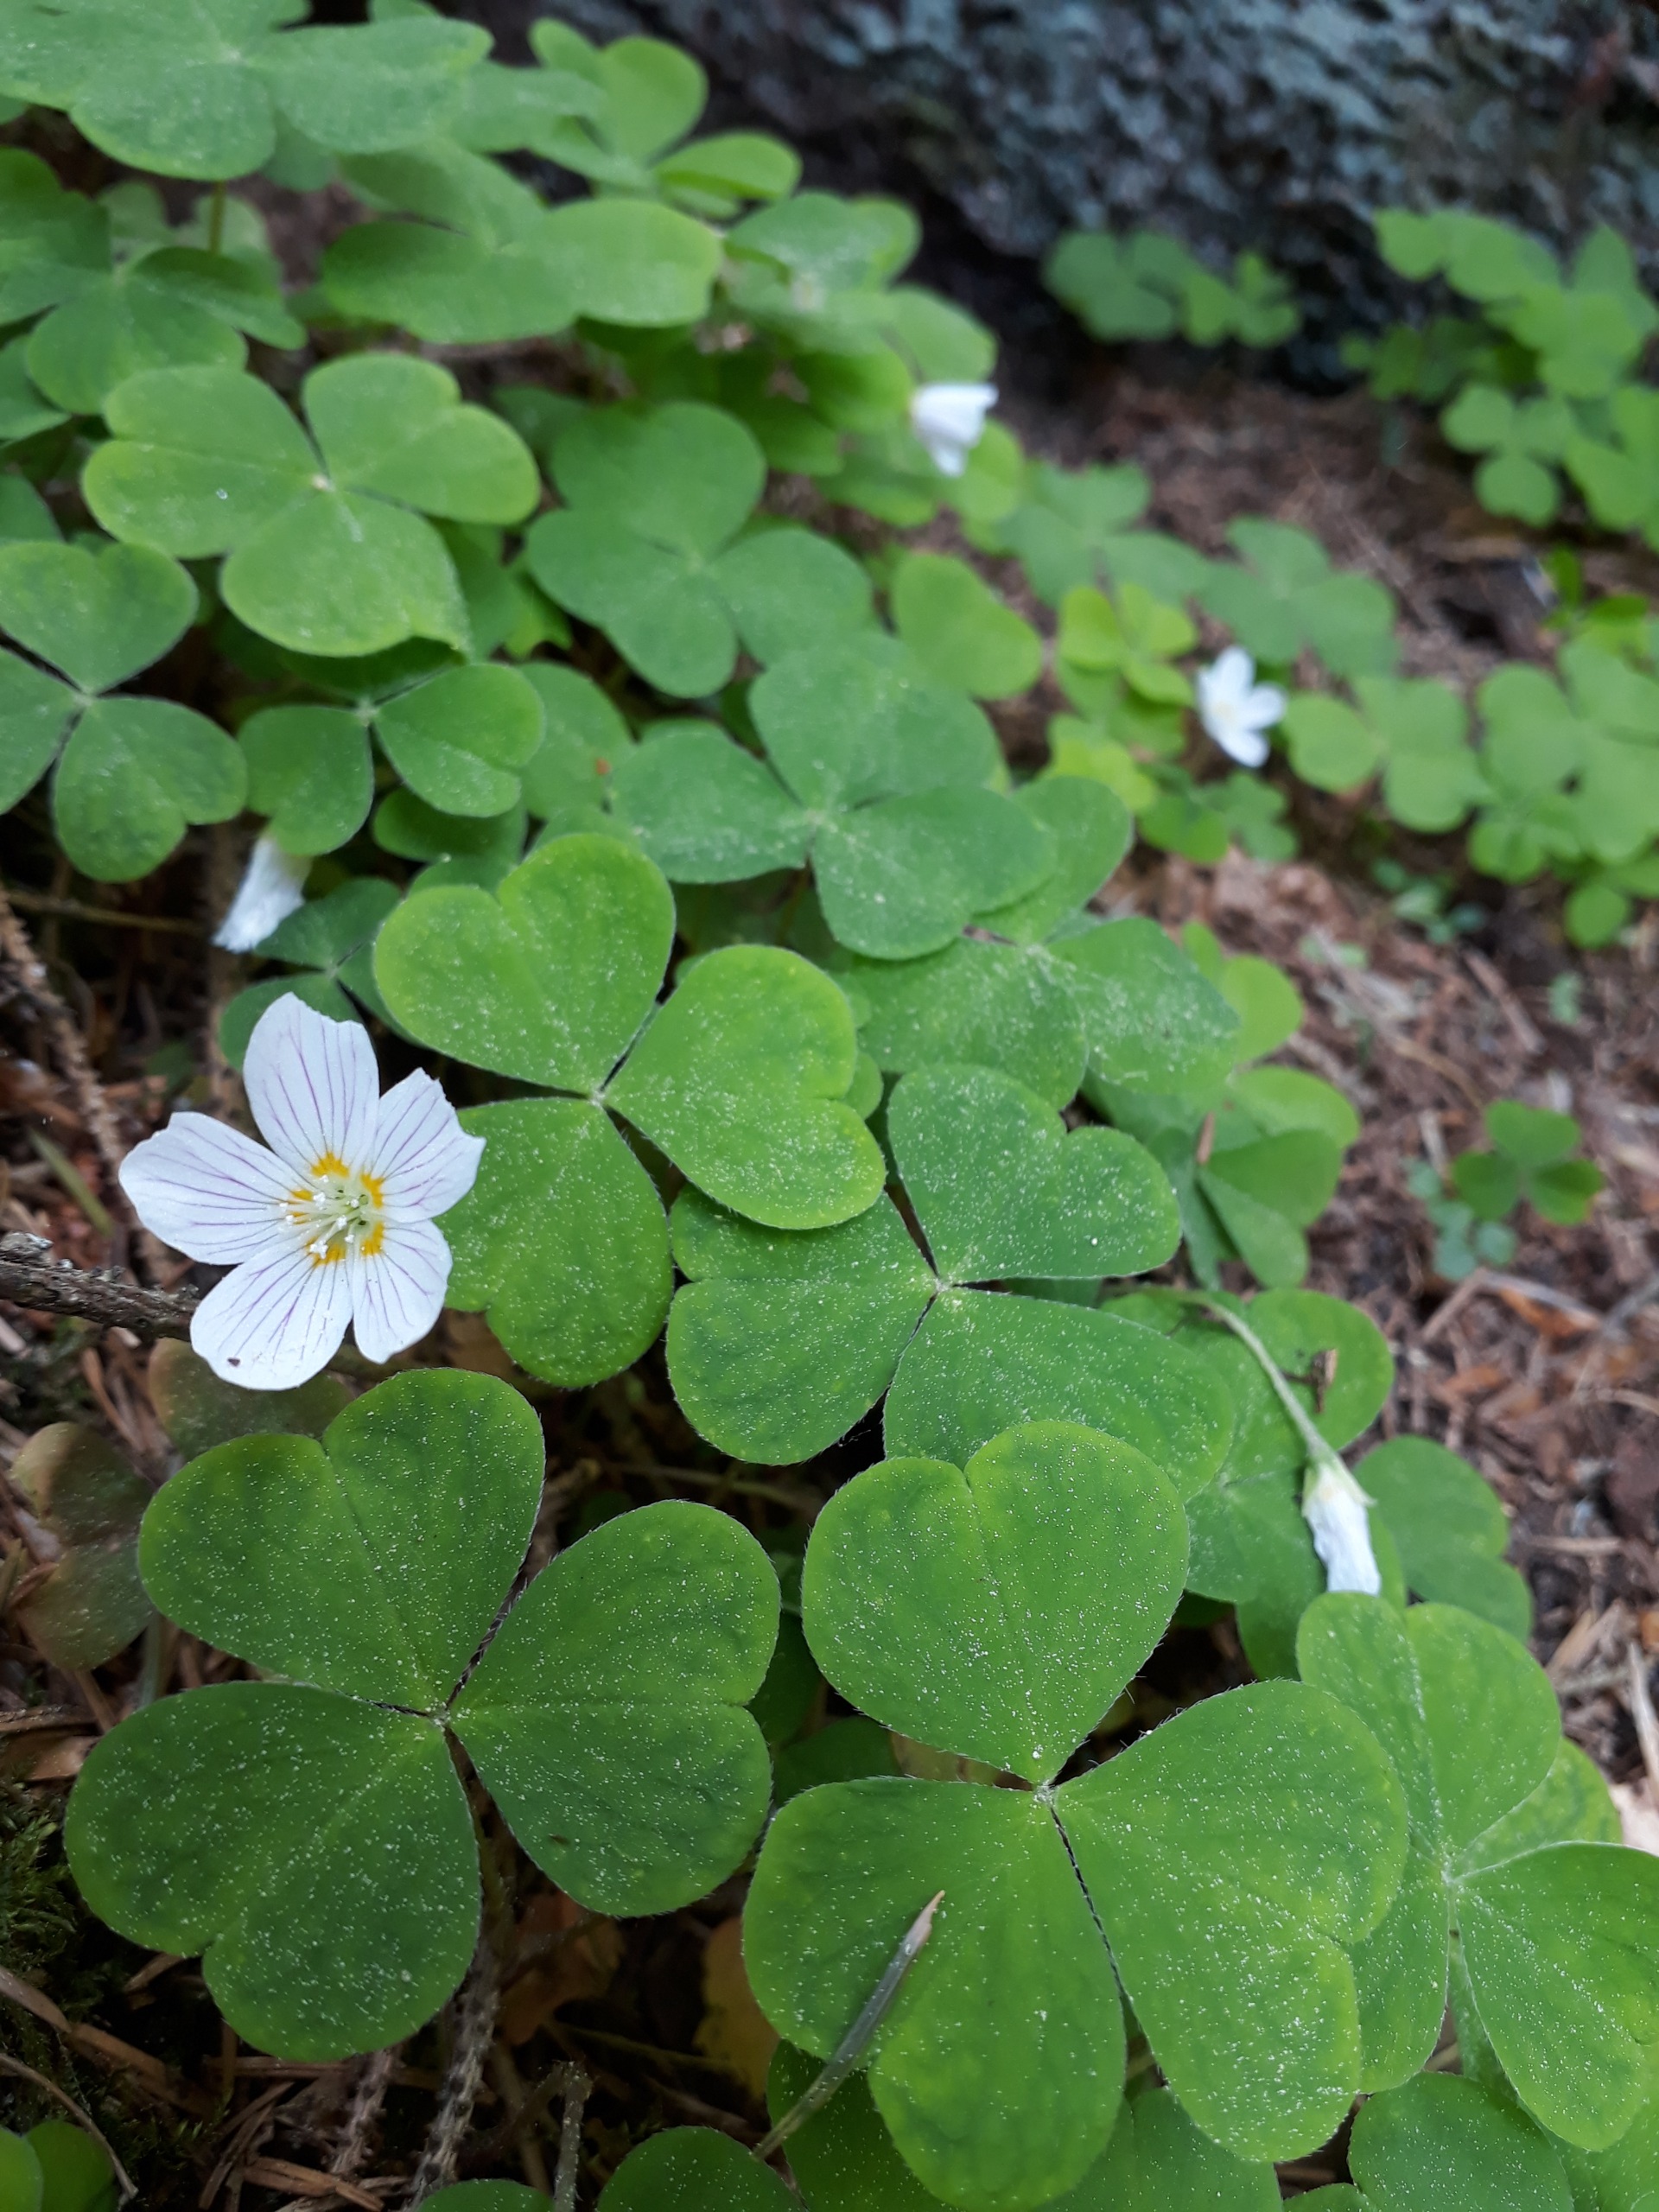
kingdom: Plantae
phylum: Tracheophyta
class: Magnoliopsida
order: Oxalidales
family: Oxalidaceae
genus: Oxalis
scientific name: Oxalis acetosella
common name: Skovsyre
